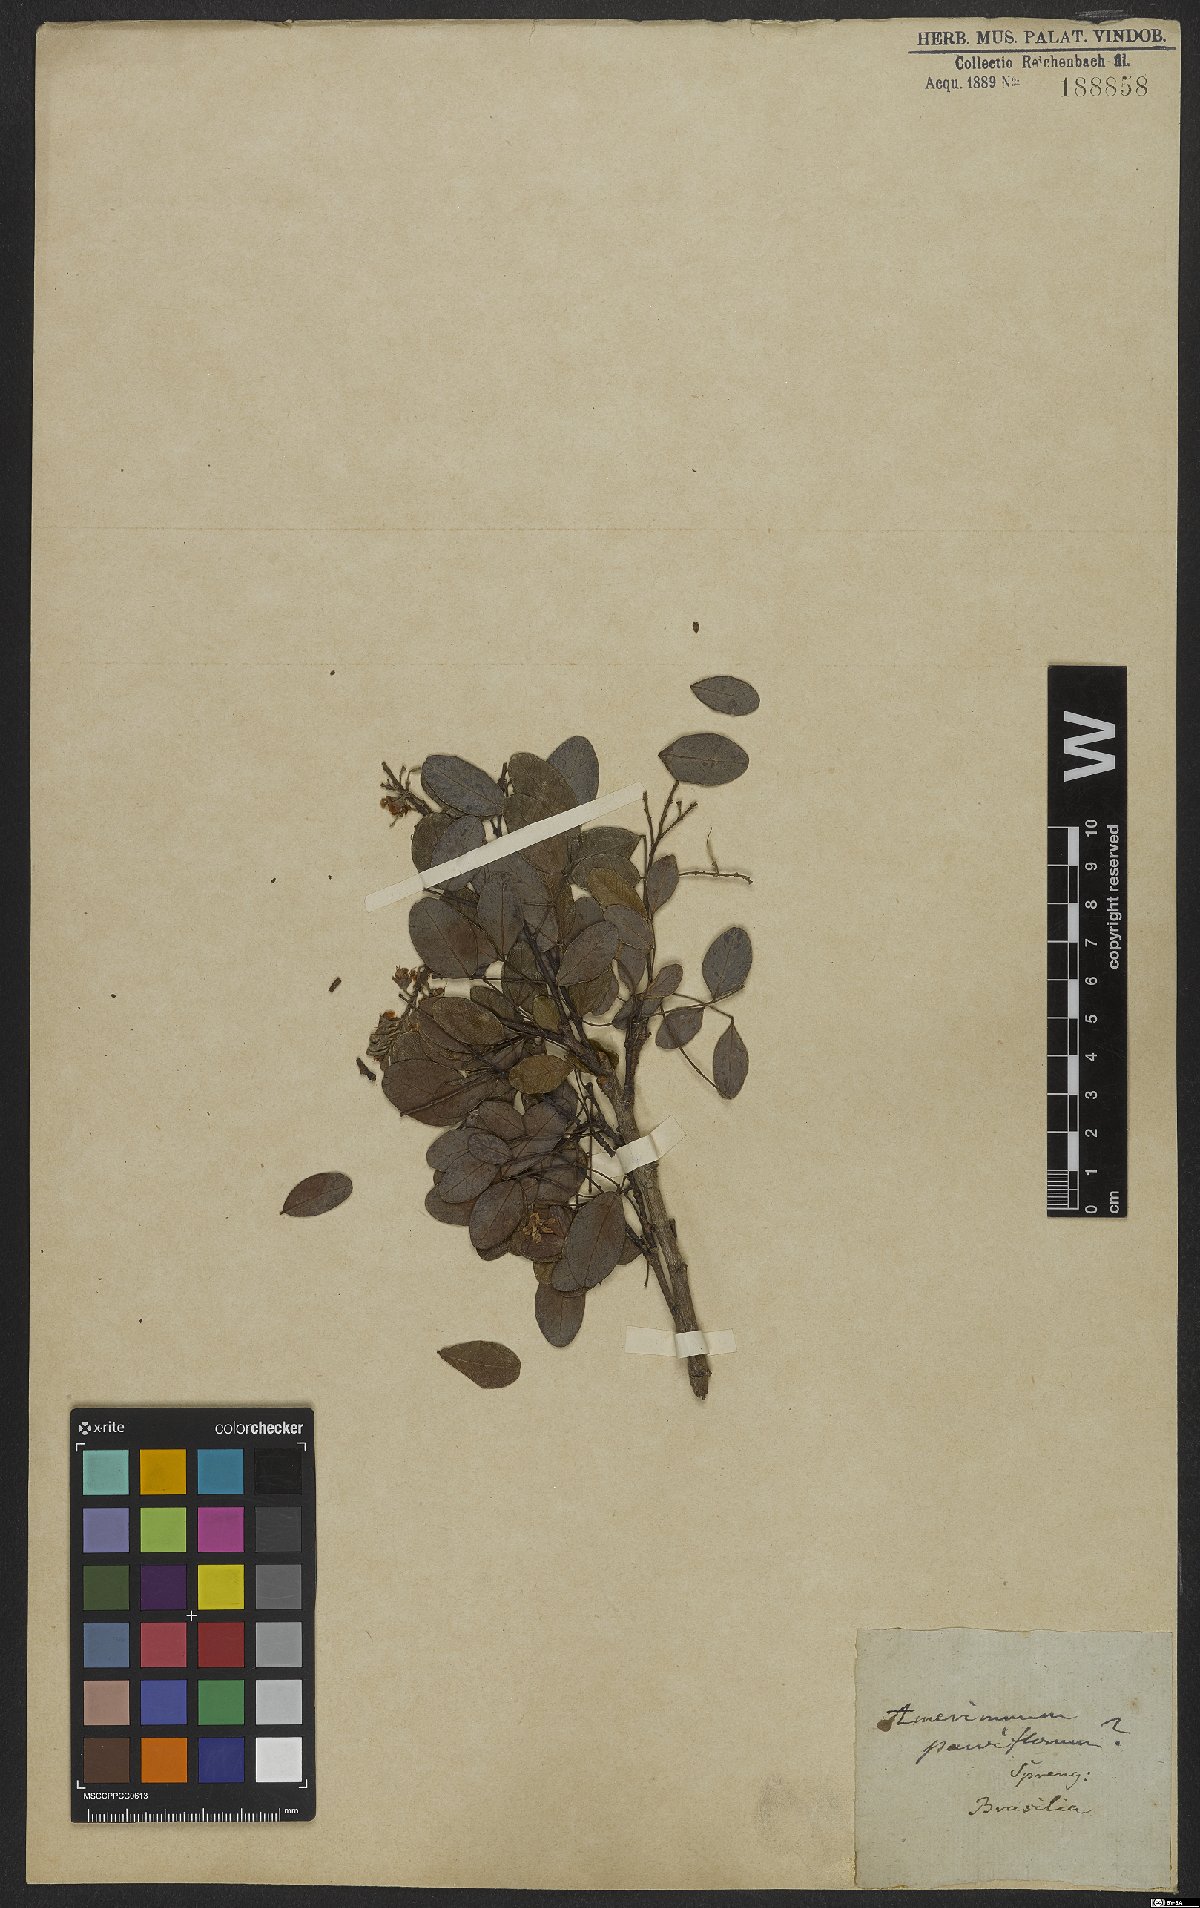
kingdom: Plantae
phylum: Tracheophyta
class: Magnoliopsida
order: Fabales
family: Fabaceae
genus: Dalbergia
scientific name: Dalbergia parviflora
